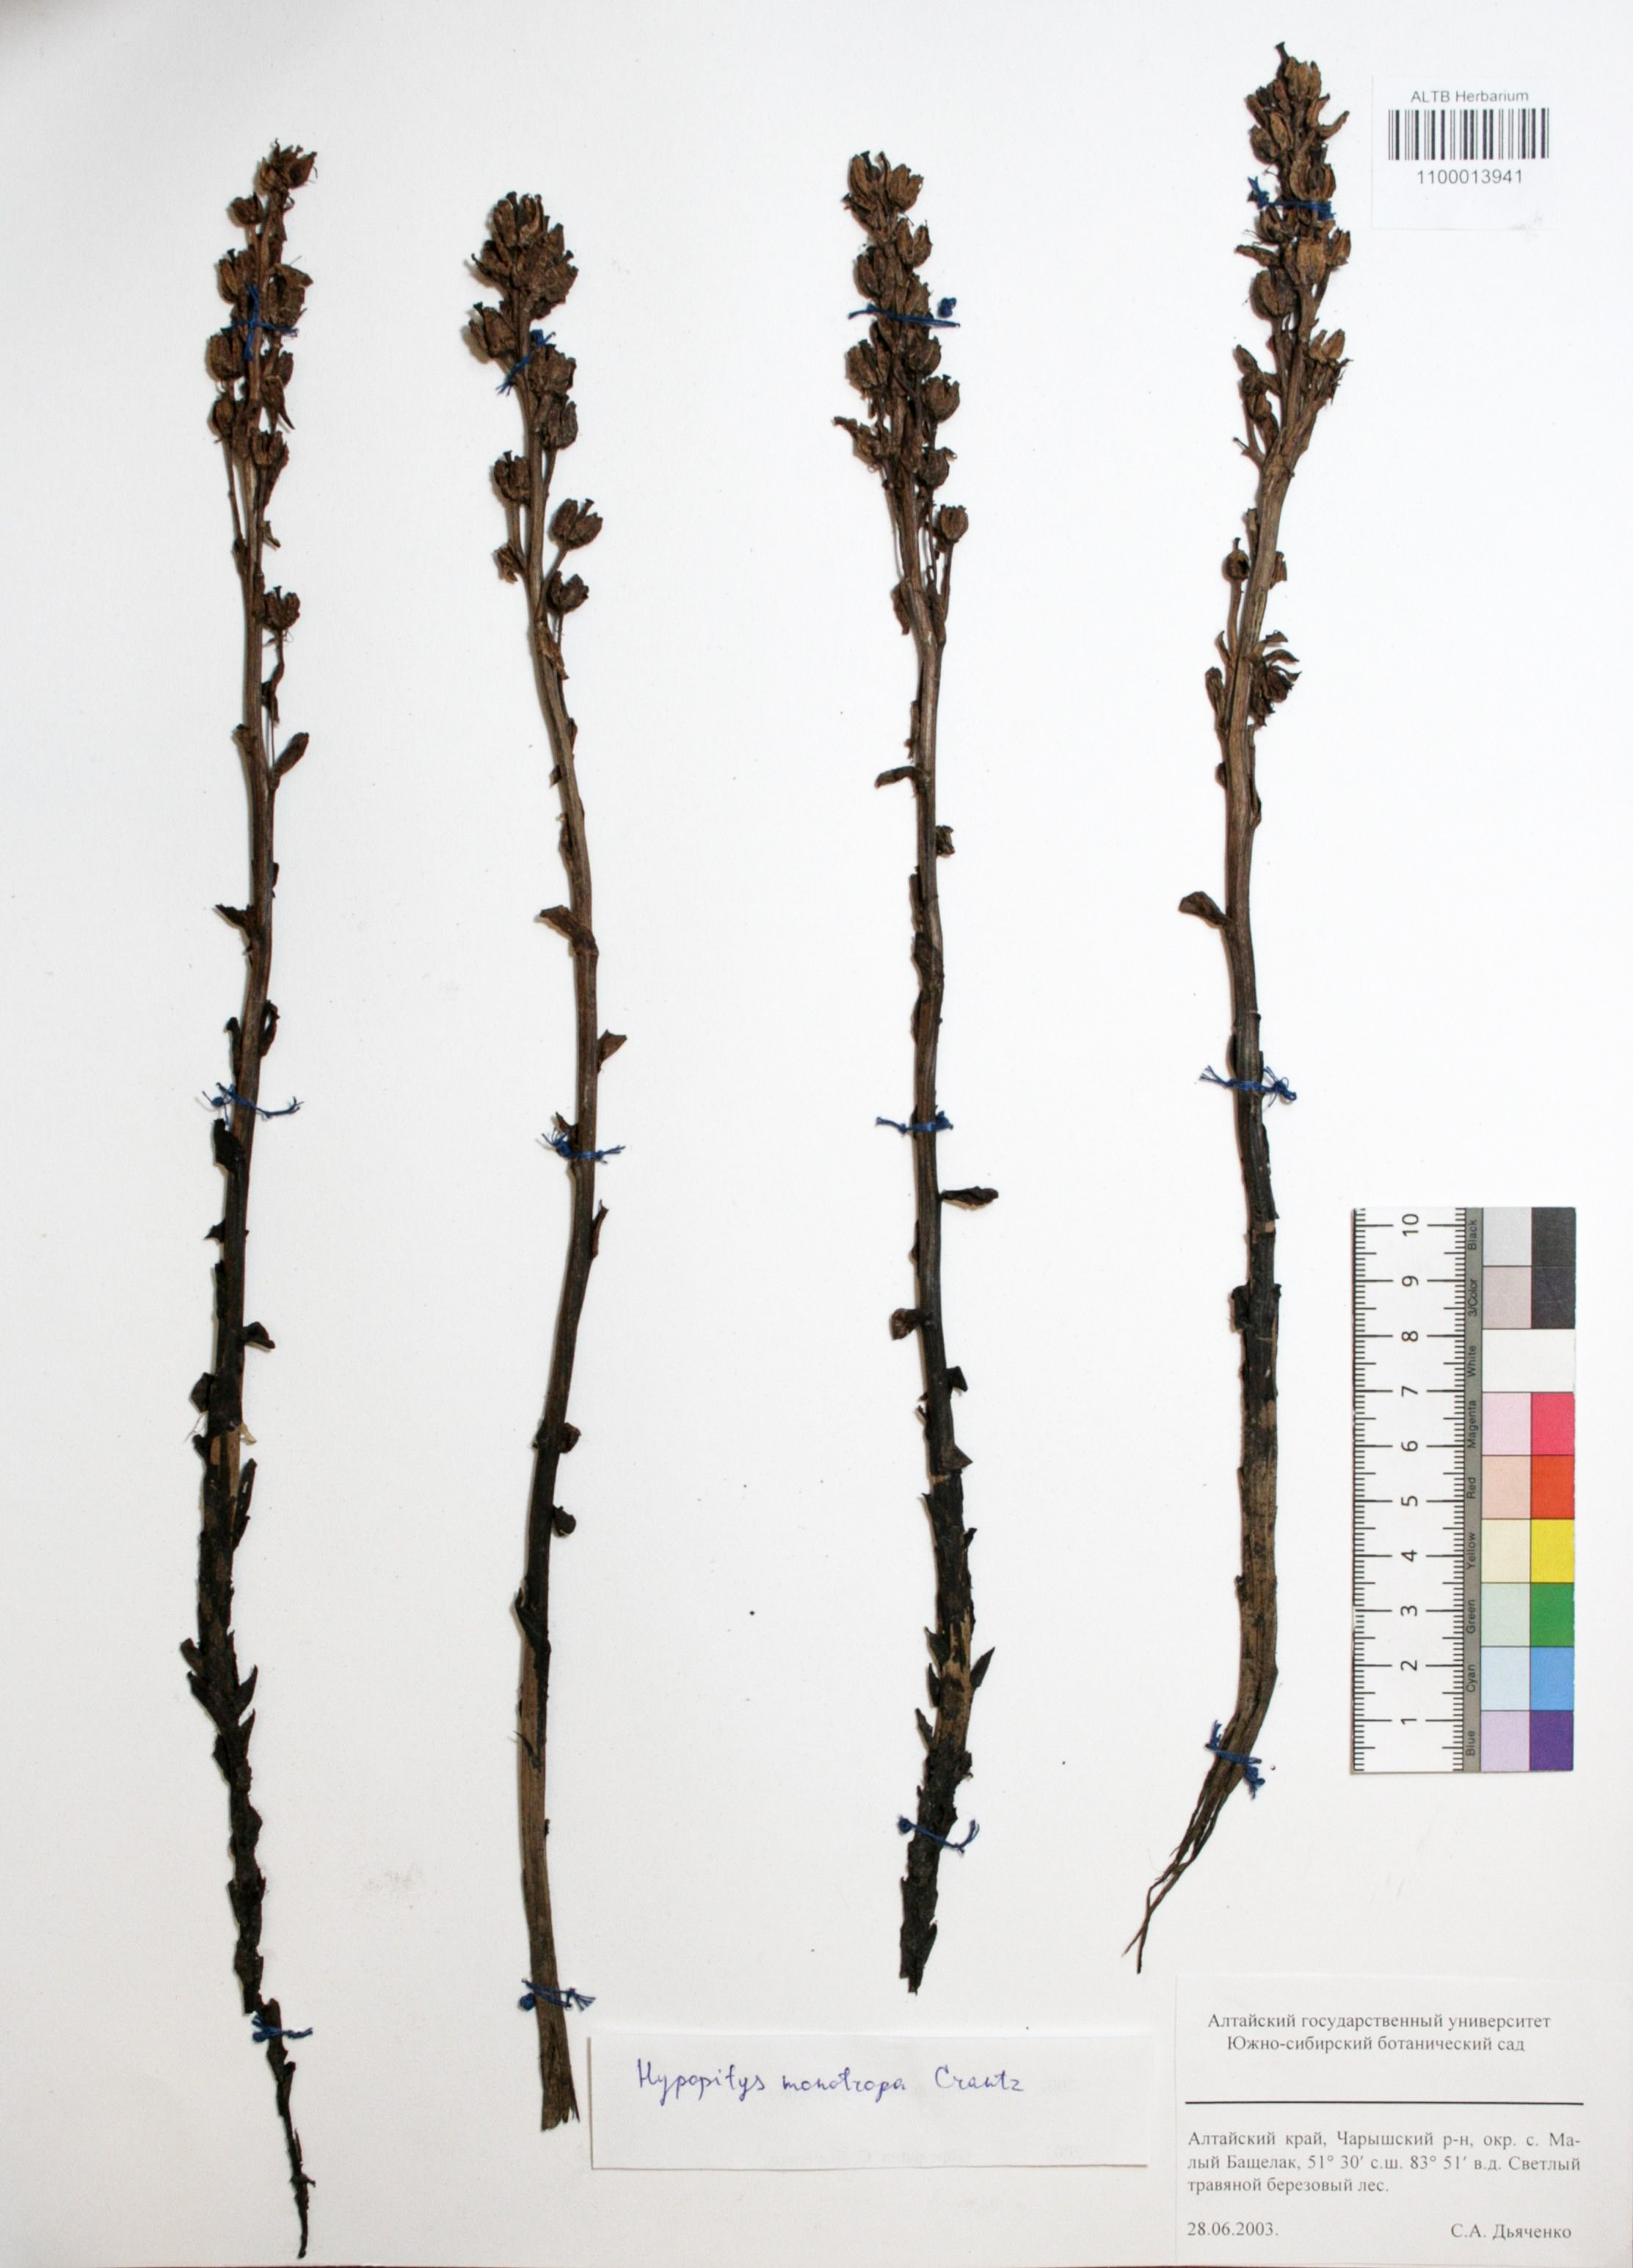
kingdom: Plantae
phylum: Tracheophyta
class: Magnoliopsida
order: Ericales
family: Ericaceae
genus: Hypopitys
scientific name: Hypopitys monotropa
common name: Yellow bird's-nest
